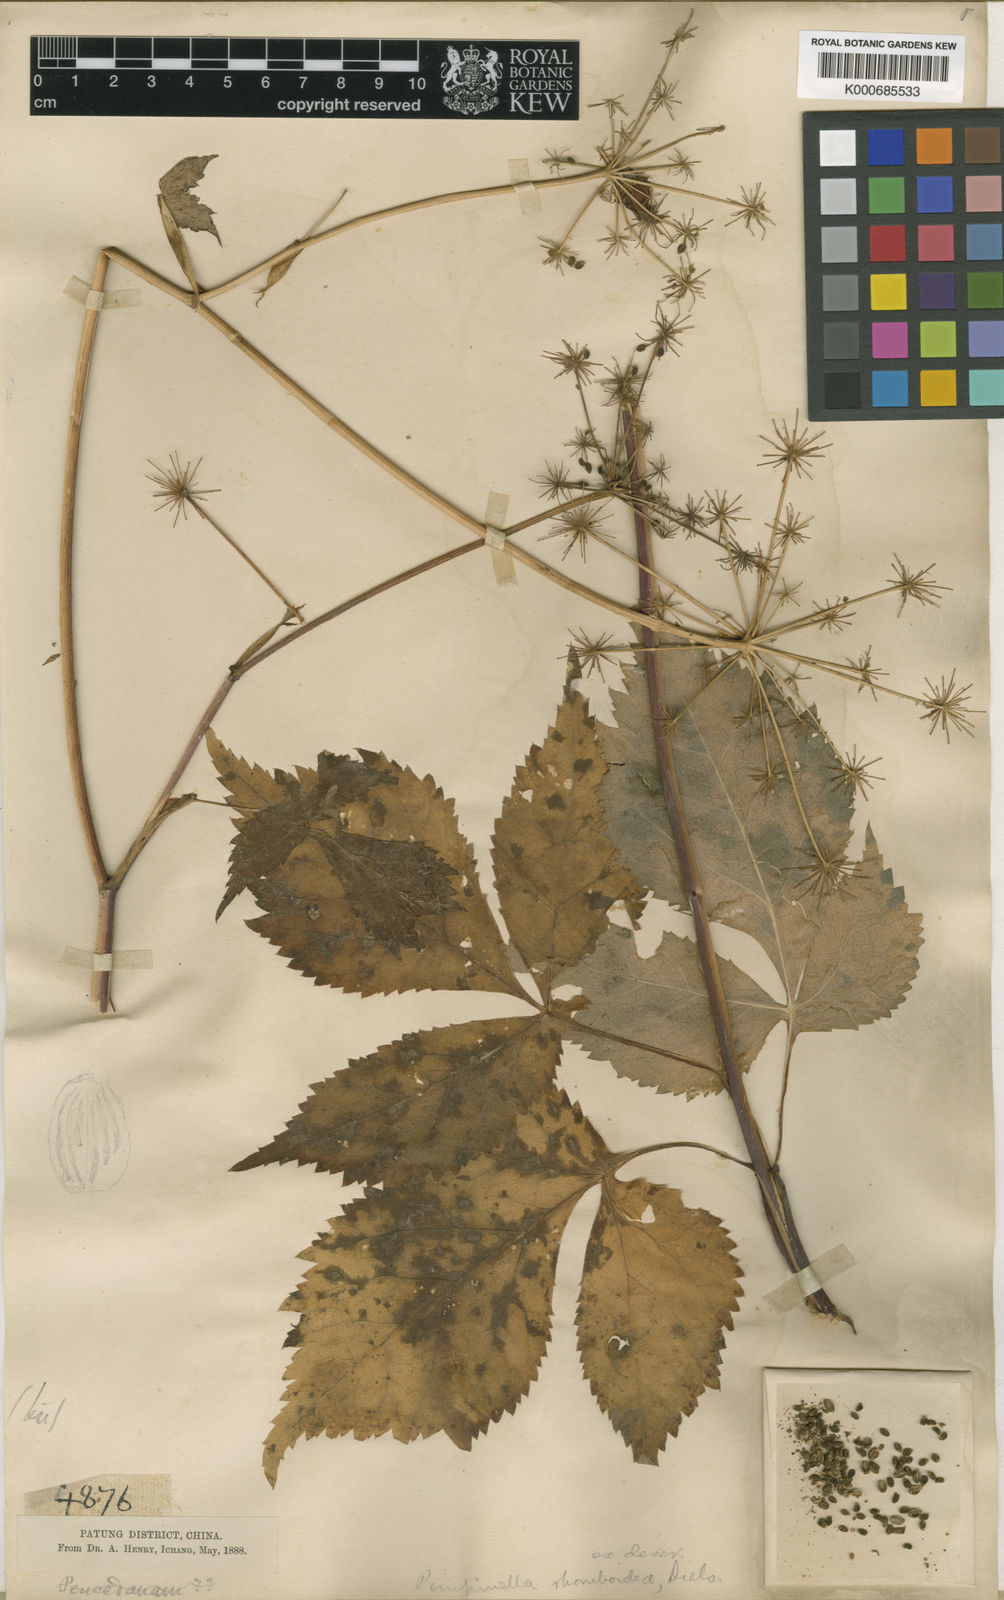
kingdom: Plantae
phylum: Tracheophyta
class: Magnoliopsida
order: Apiales
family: Apiaceae
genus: Pimpinella
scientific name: Pimpinella rhomboidea
